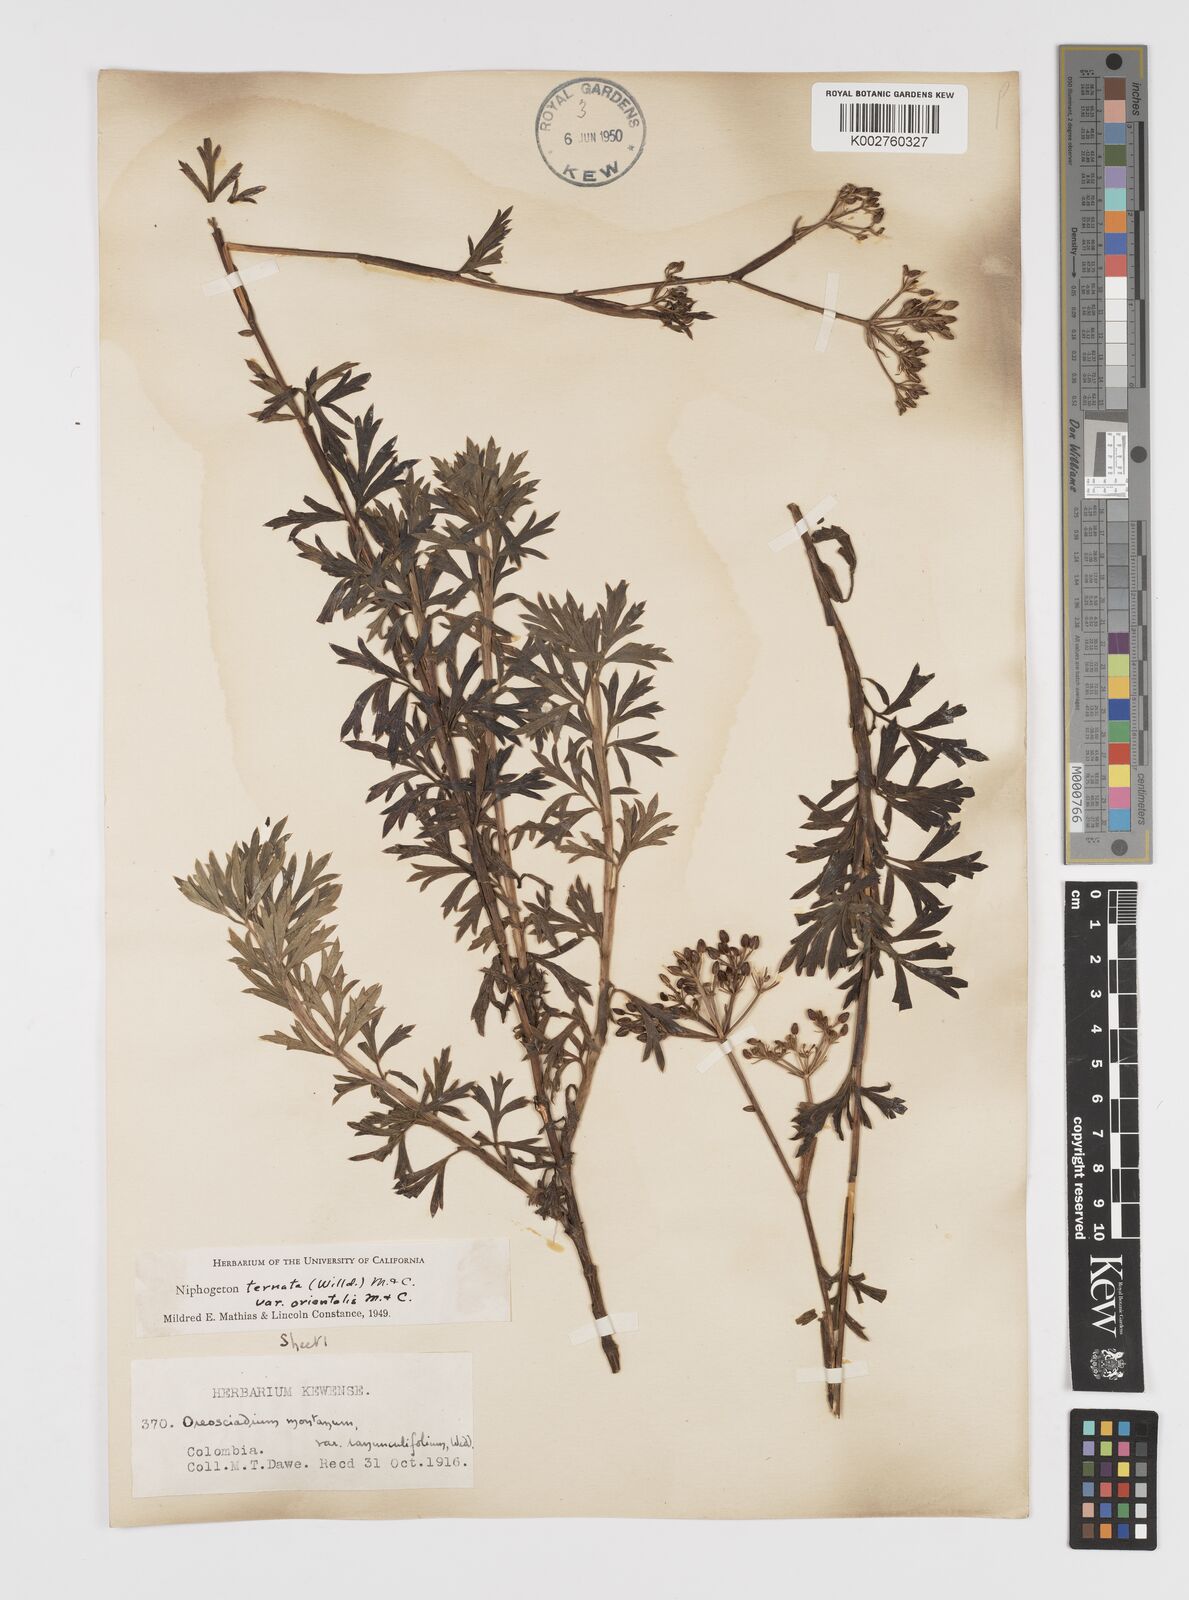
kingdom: Plantae
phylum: Tracheophyta
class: Magnoliopsida
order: Apiales
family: Apiaceae
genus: Niphogeton
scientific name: Niphogeton ternata
